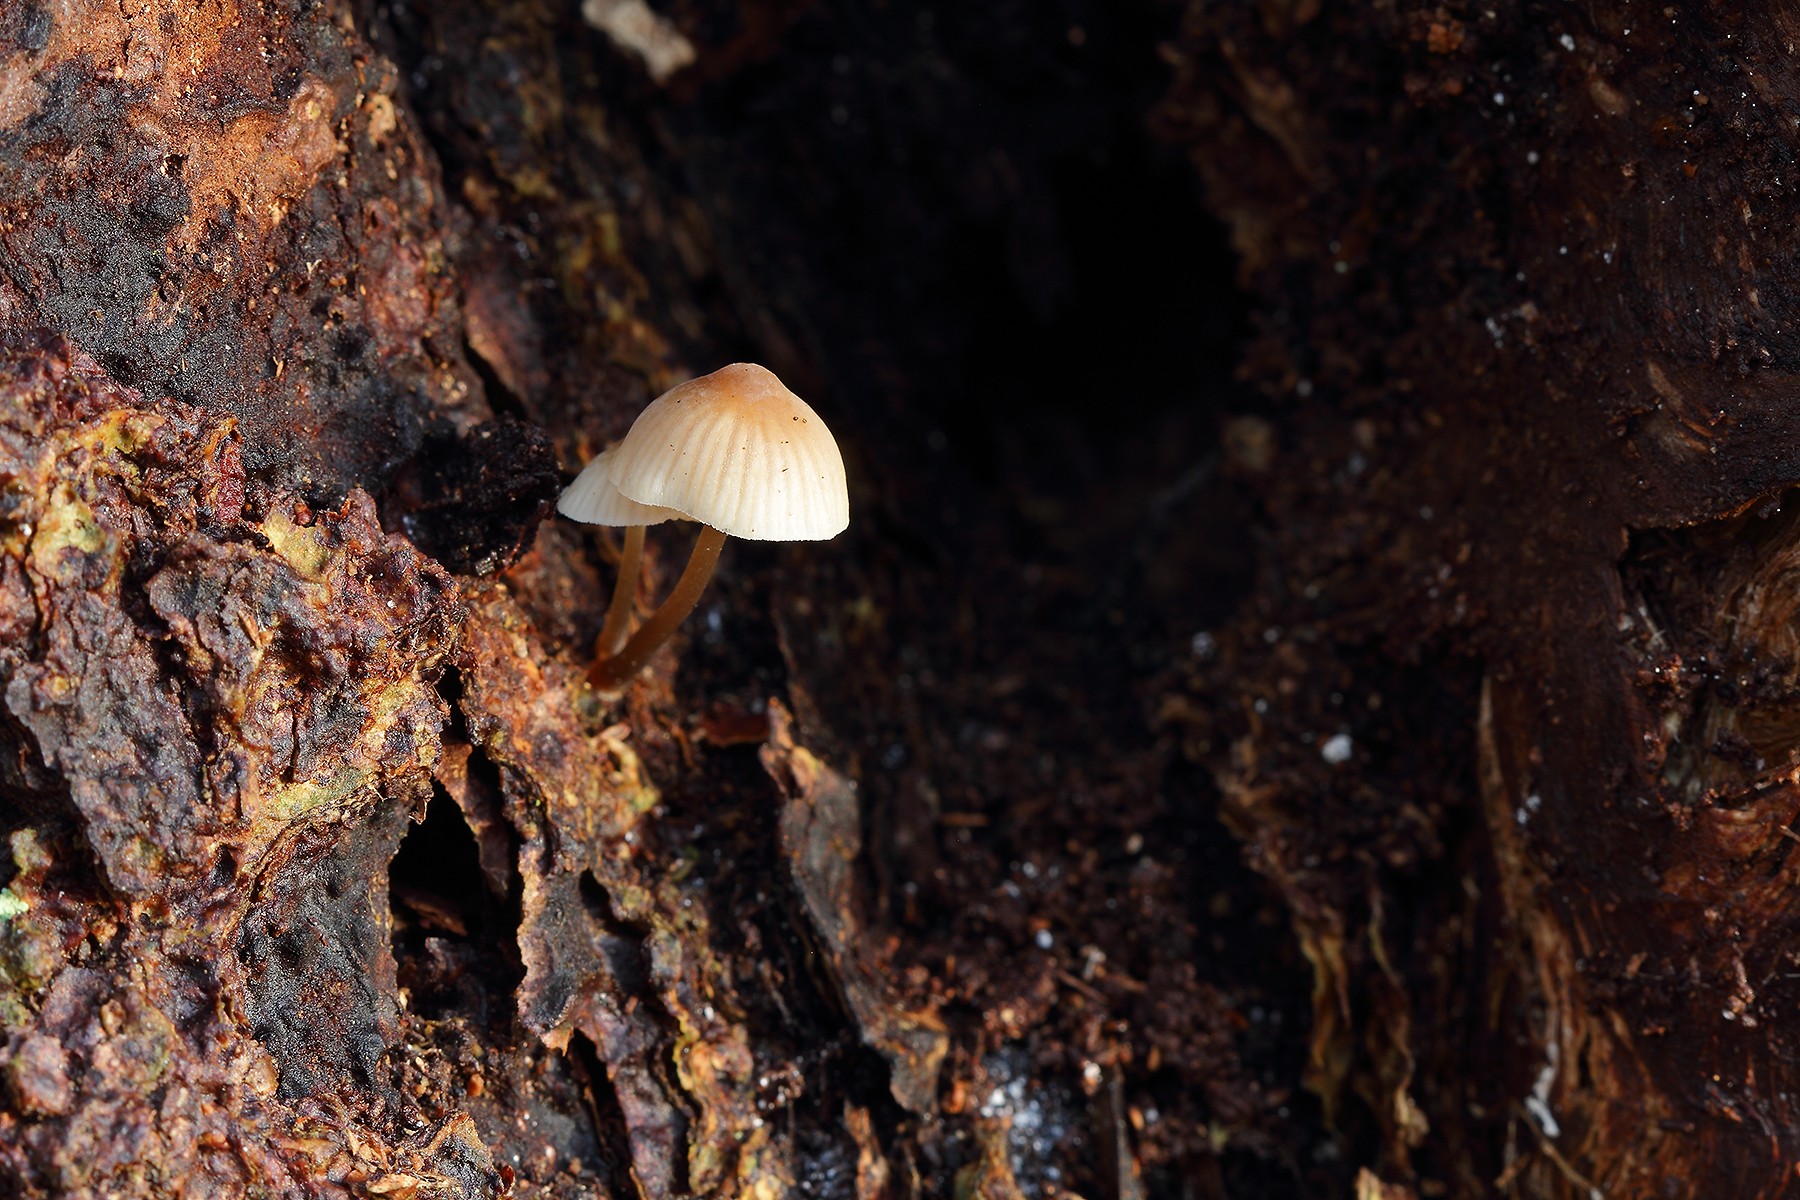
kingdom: Fungi
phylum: Basidiomycota
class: Agaricomycetes
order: Agaricales
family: Mycenaceae
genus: Mycena
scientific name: Mycena metata
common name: rødlig huesvamp
